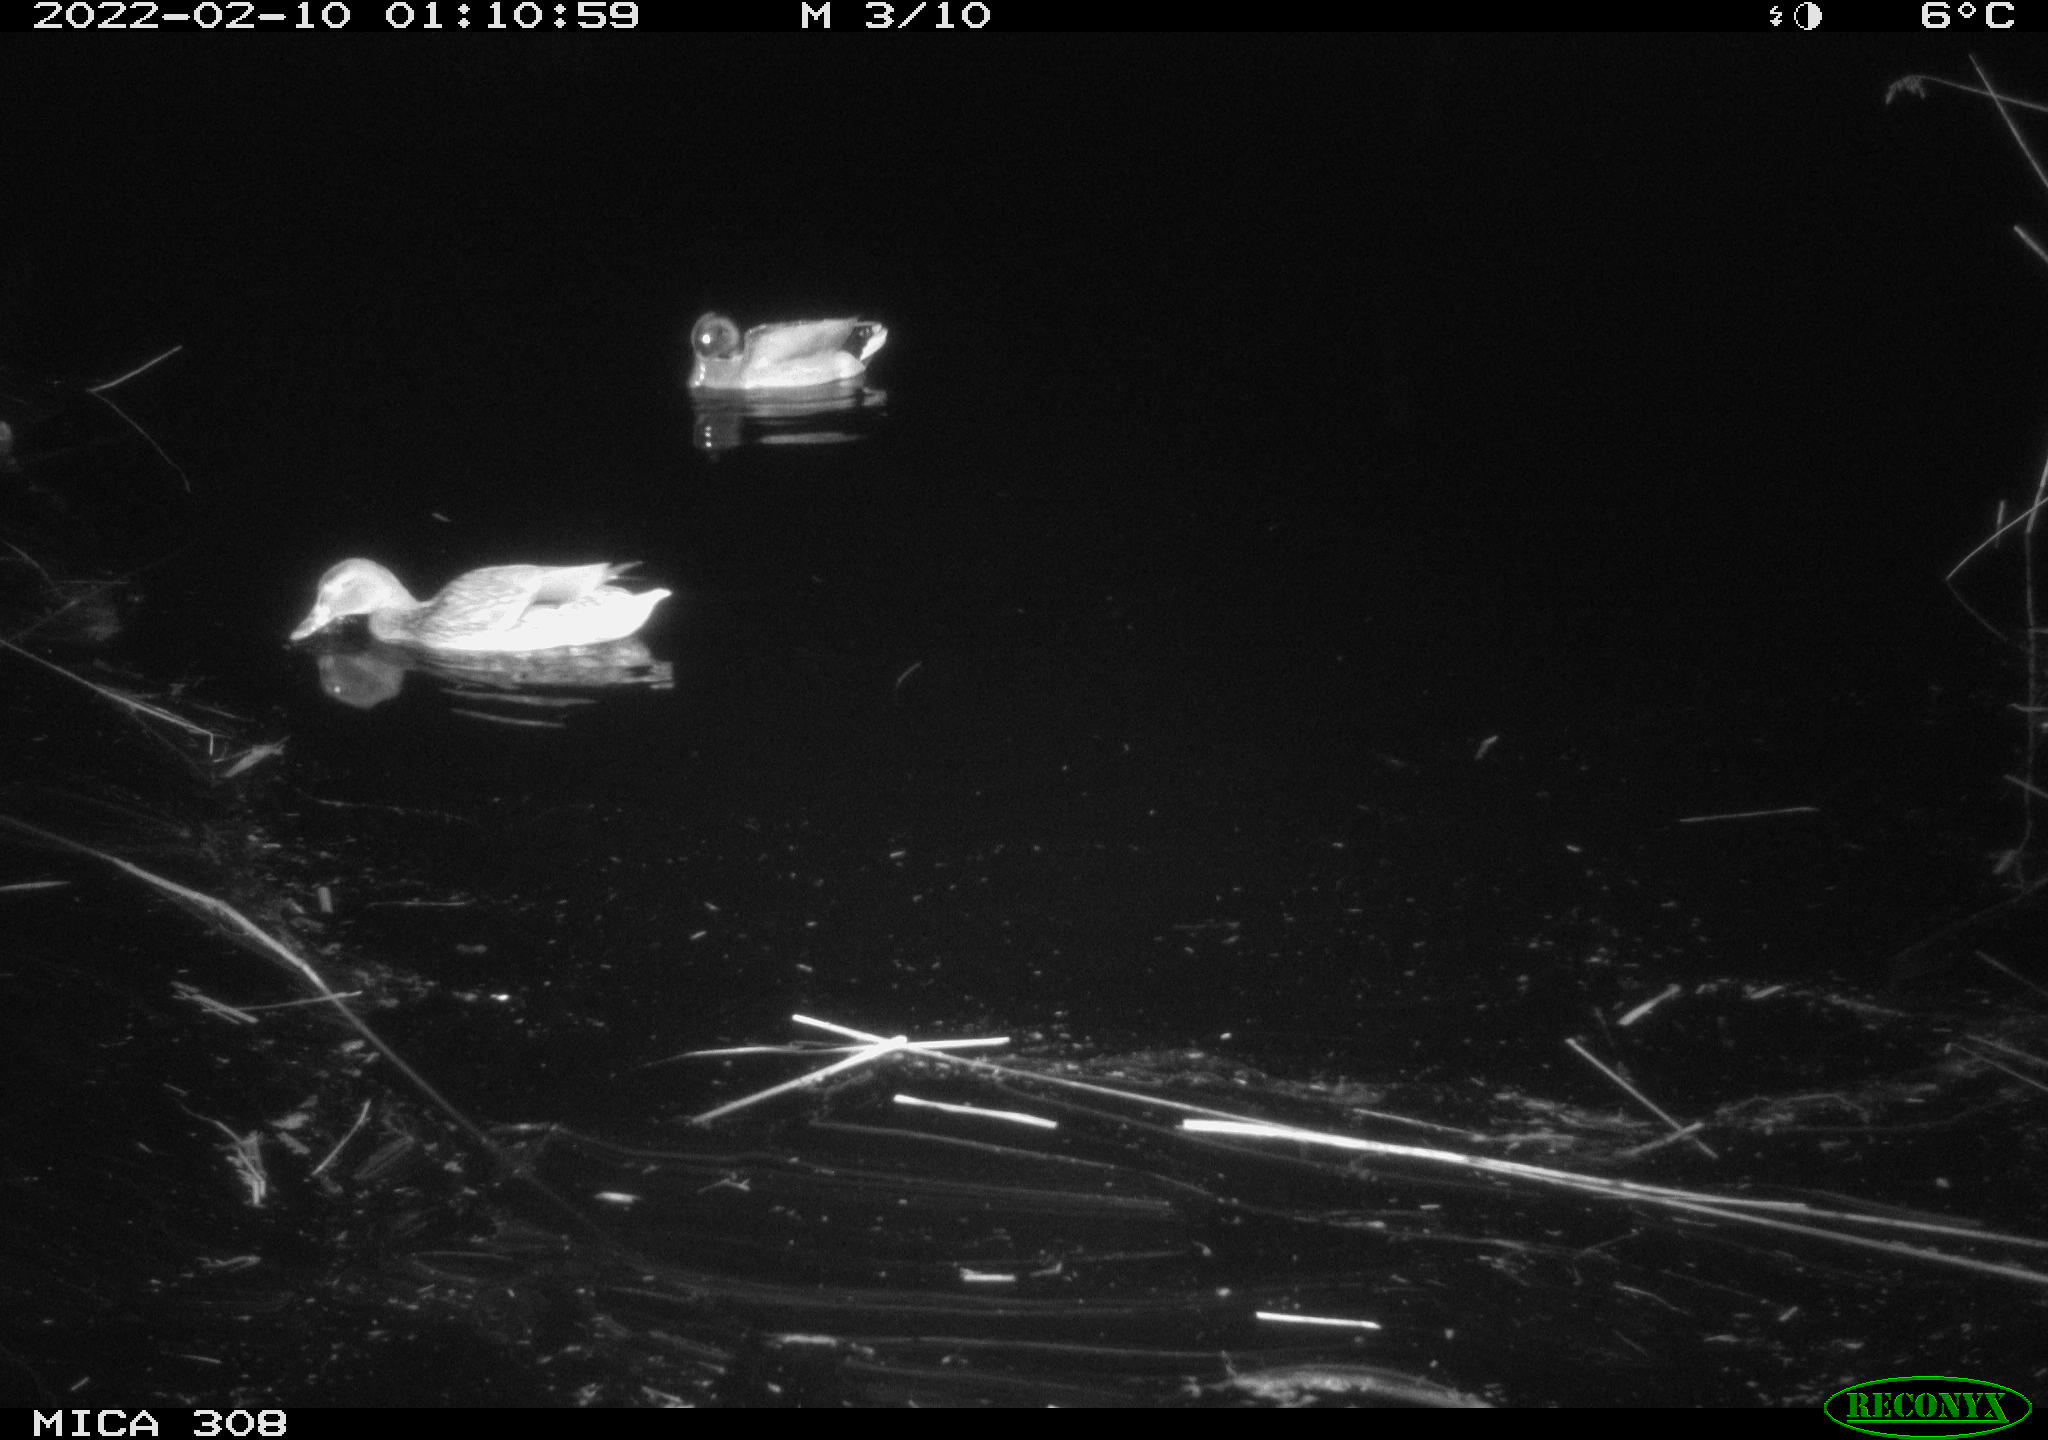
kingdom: Animalia
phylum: Chordata
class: Aves
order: Anseriformes
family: Anatidae
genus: Anas
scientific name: Anas platyrhynchos
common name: Mallard
